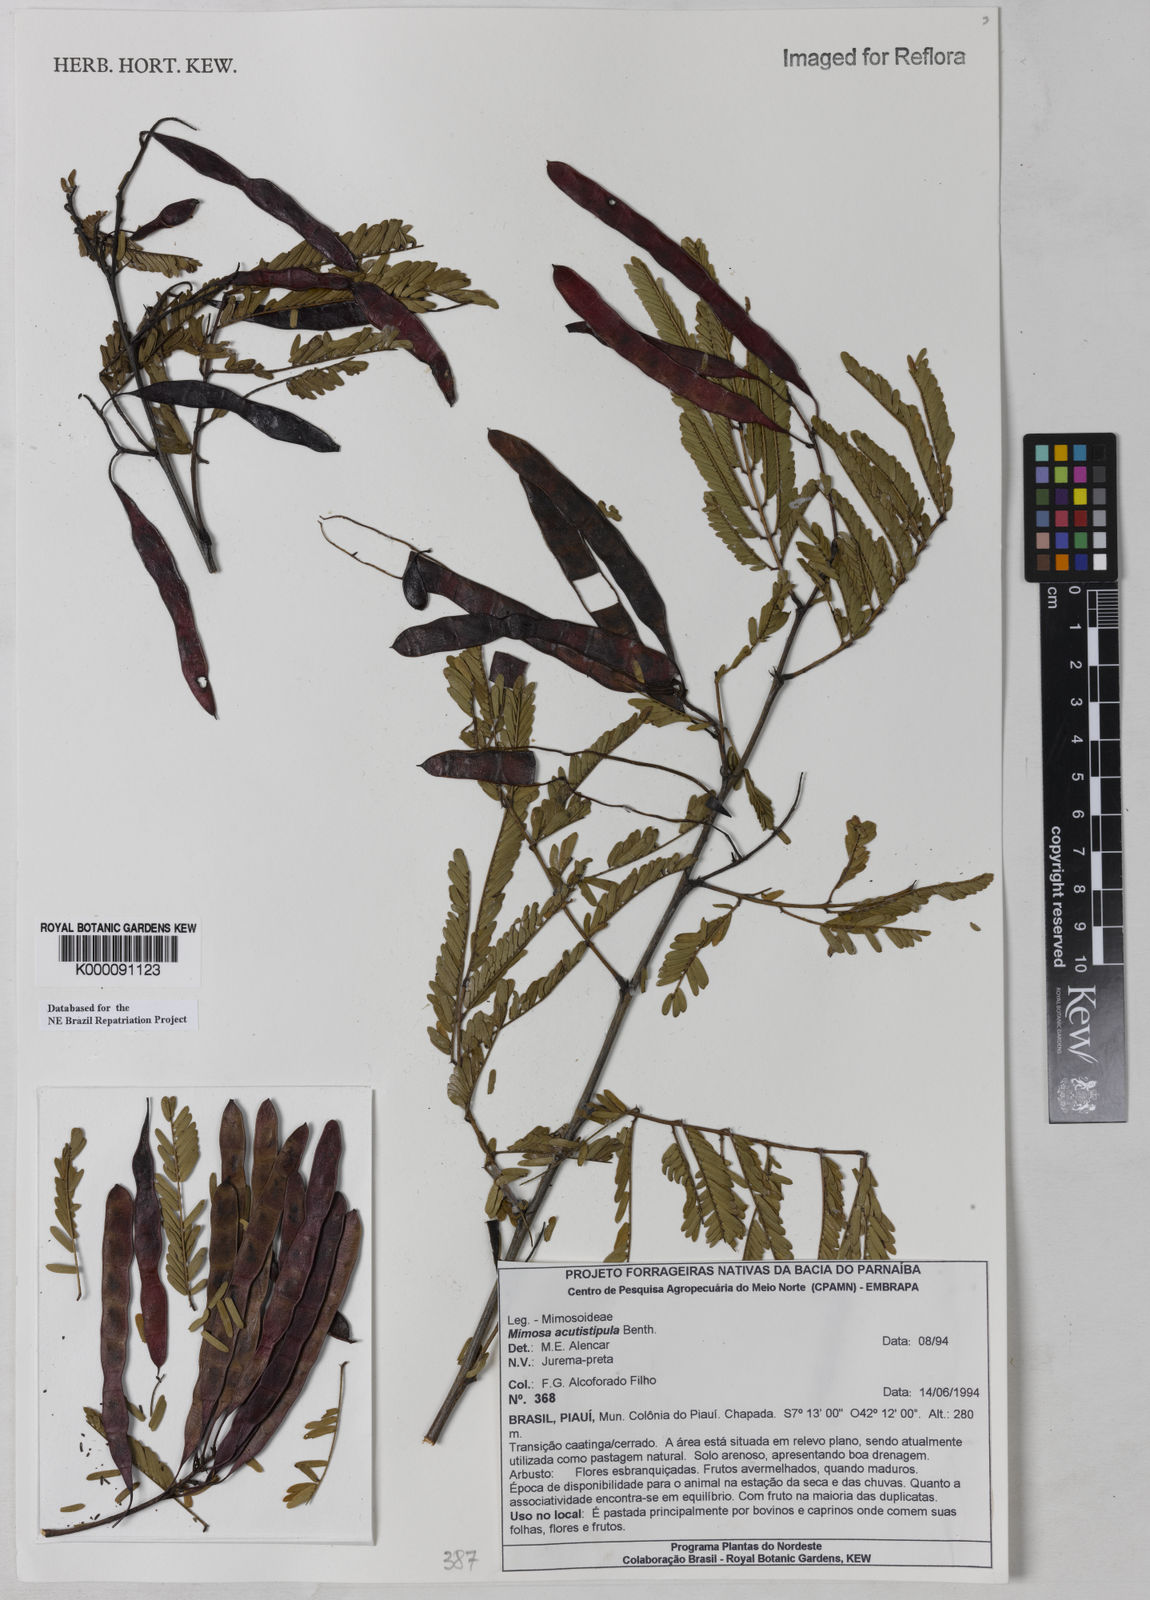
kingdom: Plantae
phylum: Tracheophyta
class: Magnoliopsida
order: Fabales
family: Fabaceae
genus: Mimosa
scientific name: Mimosa acutistipula
